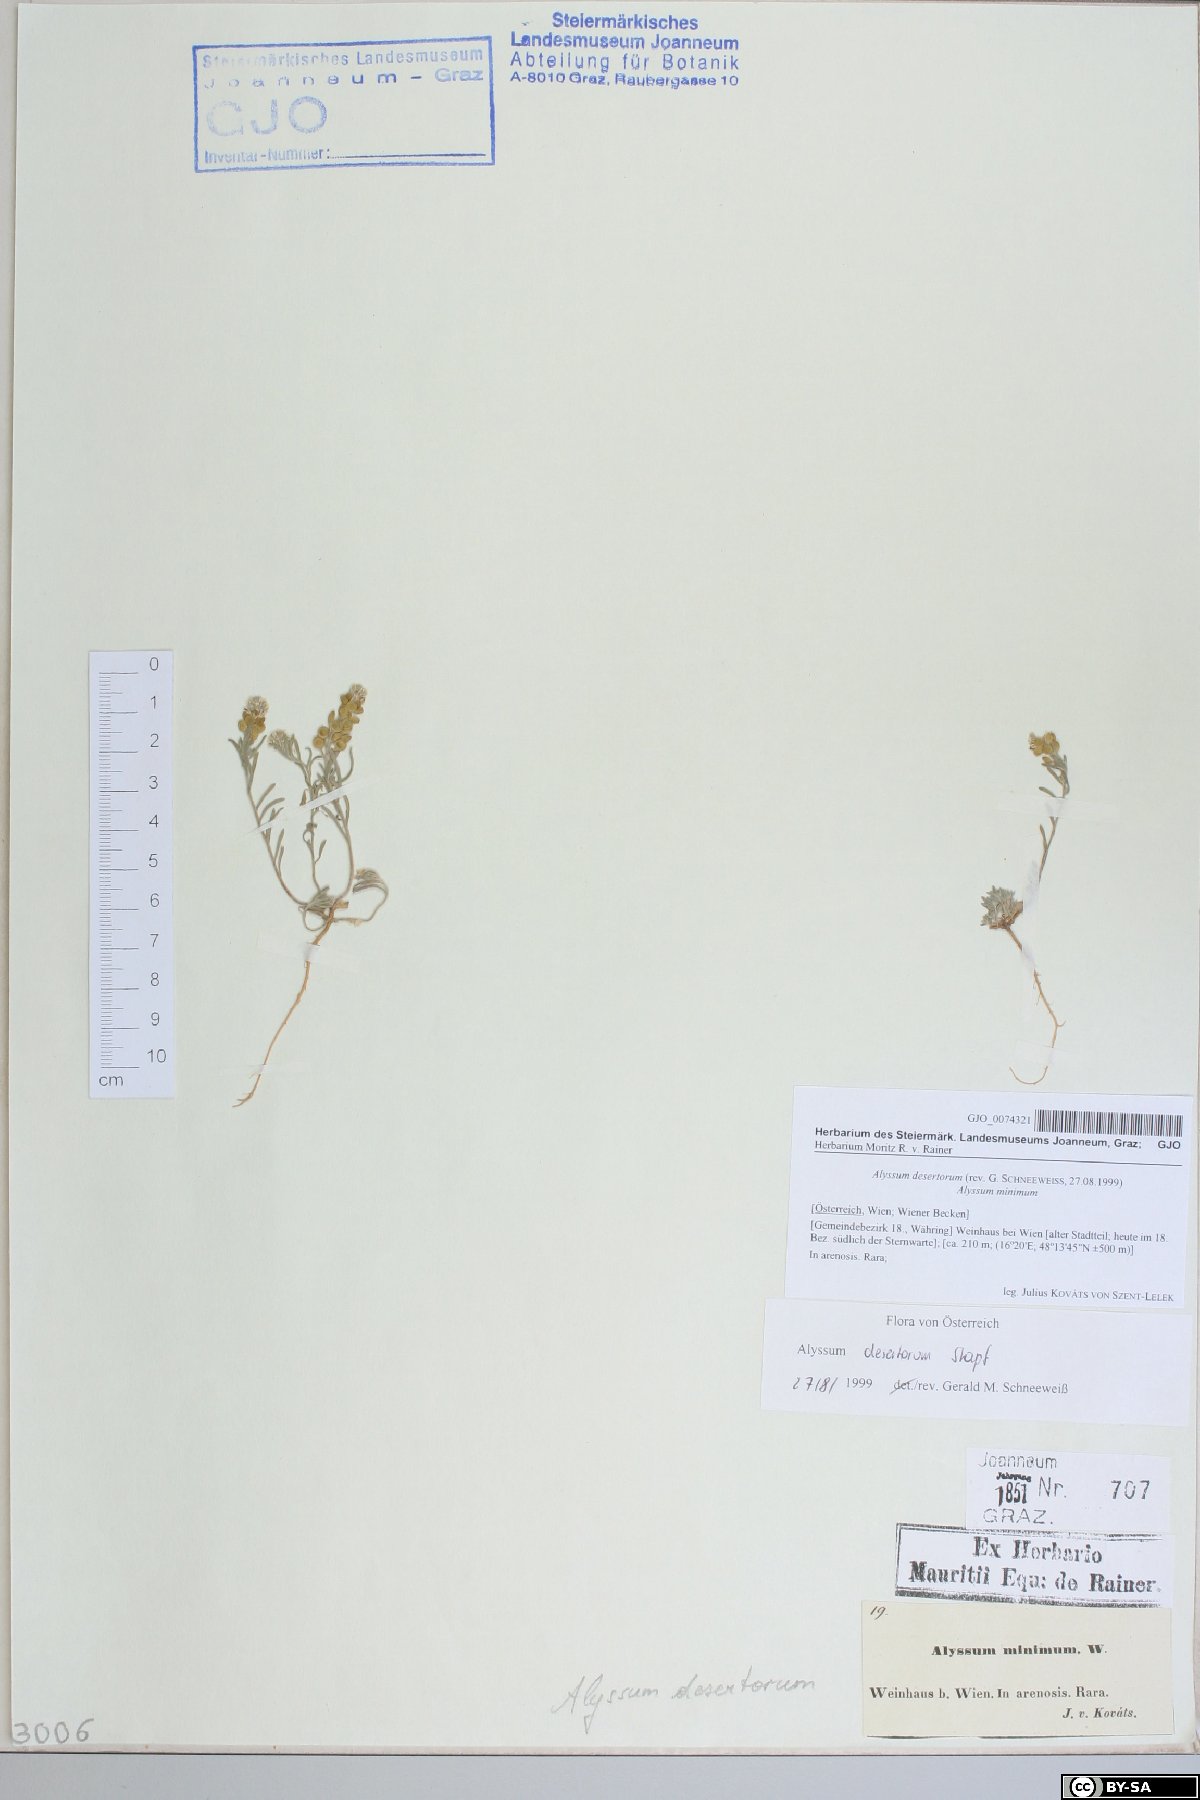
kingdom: Plantae
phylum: Tracheophyta
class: Magnoliopsida
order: Brassicales
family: Brassicaceae
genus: Alyssum
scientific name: Alyssum turkestanicum
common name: Desert alyssum
